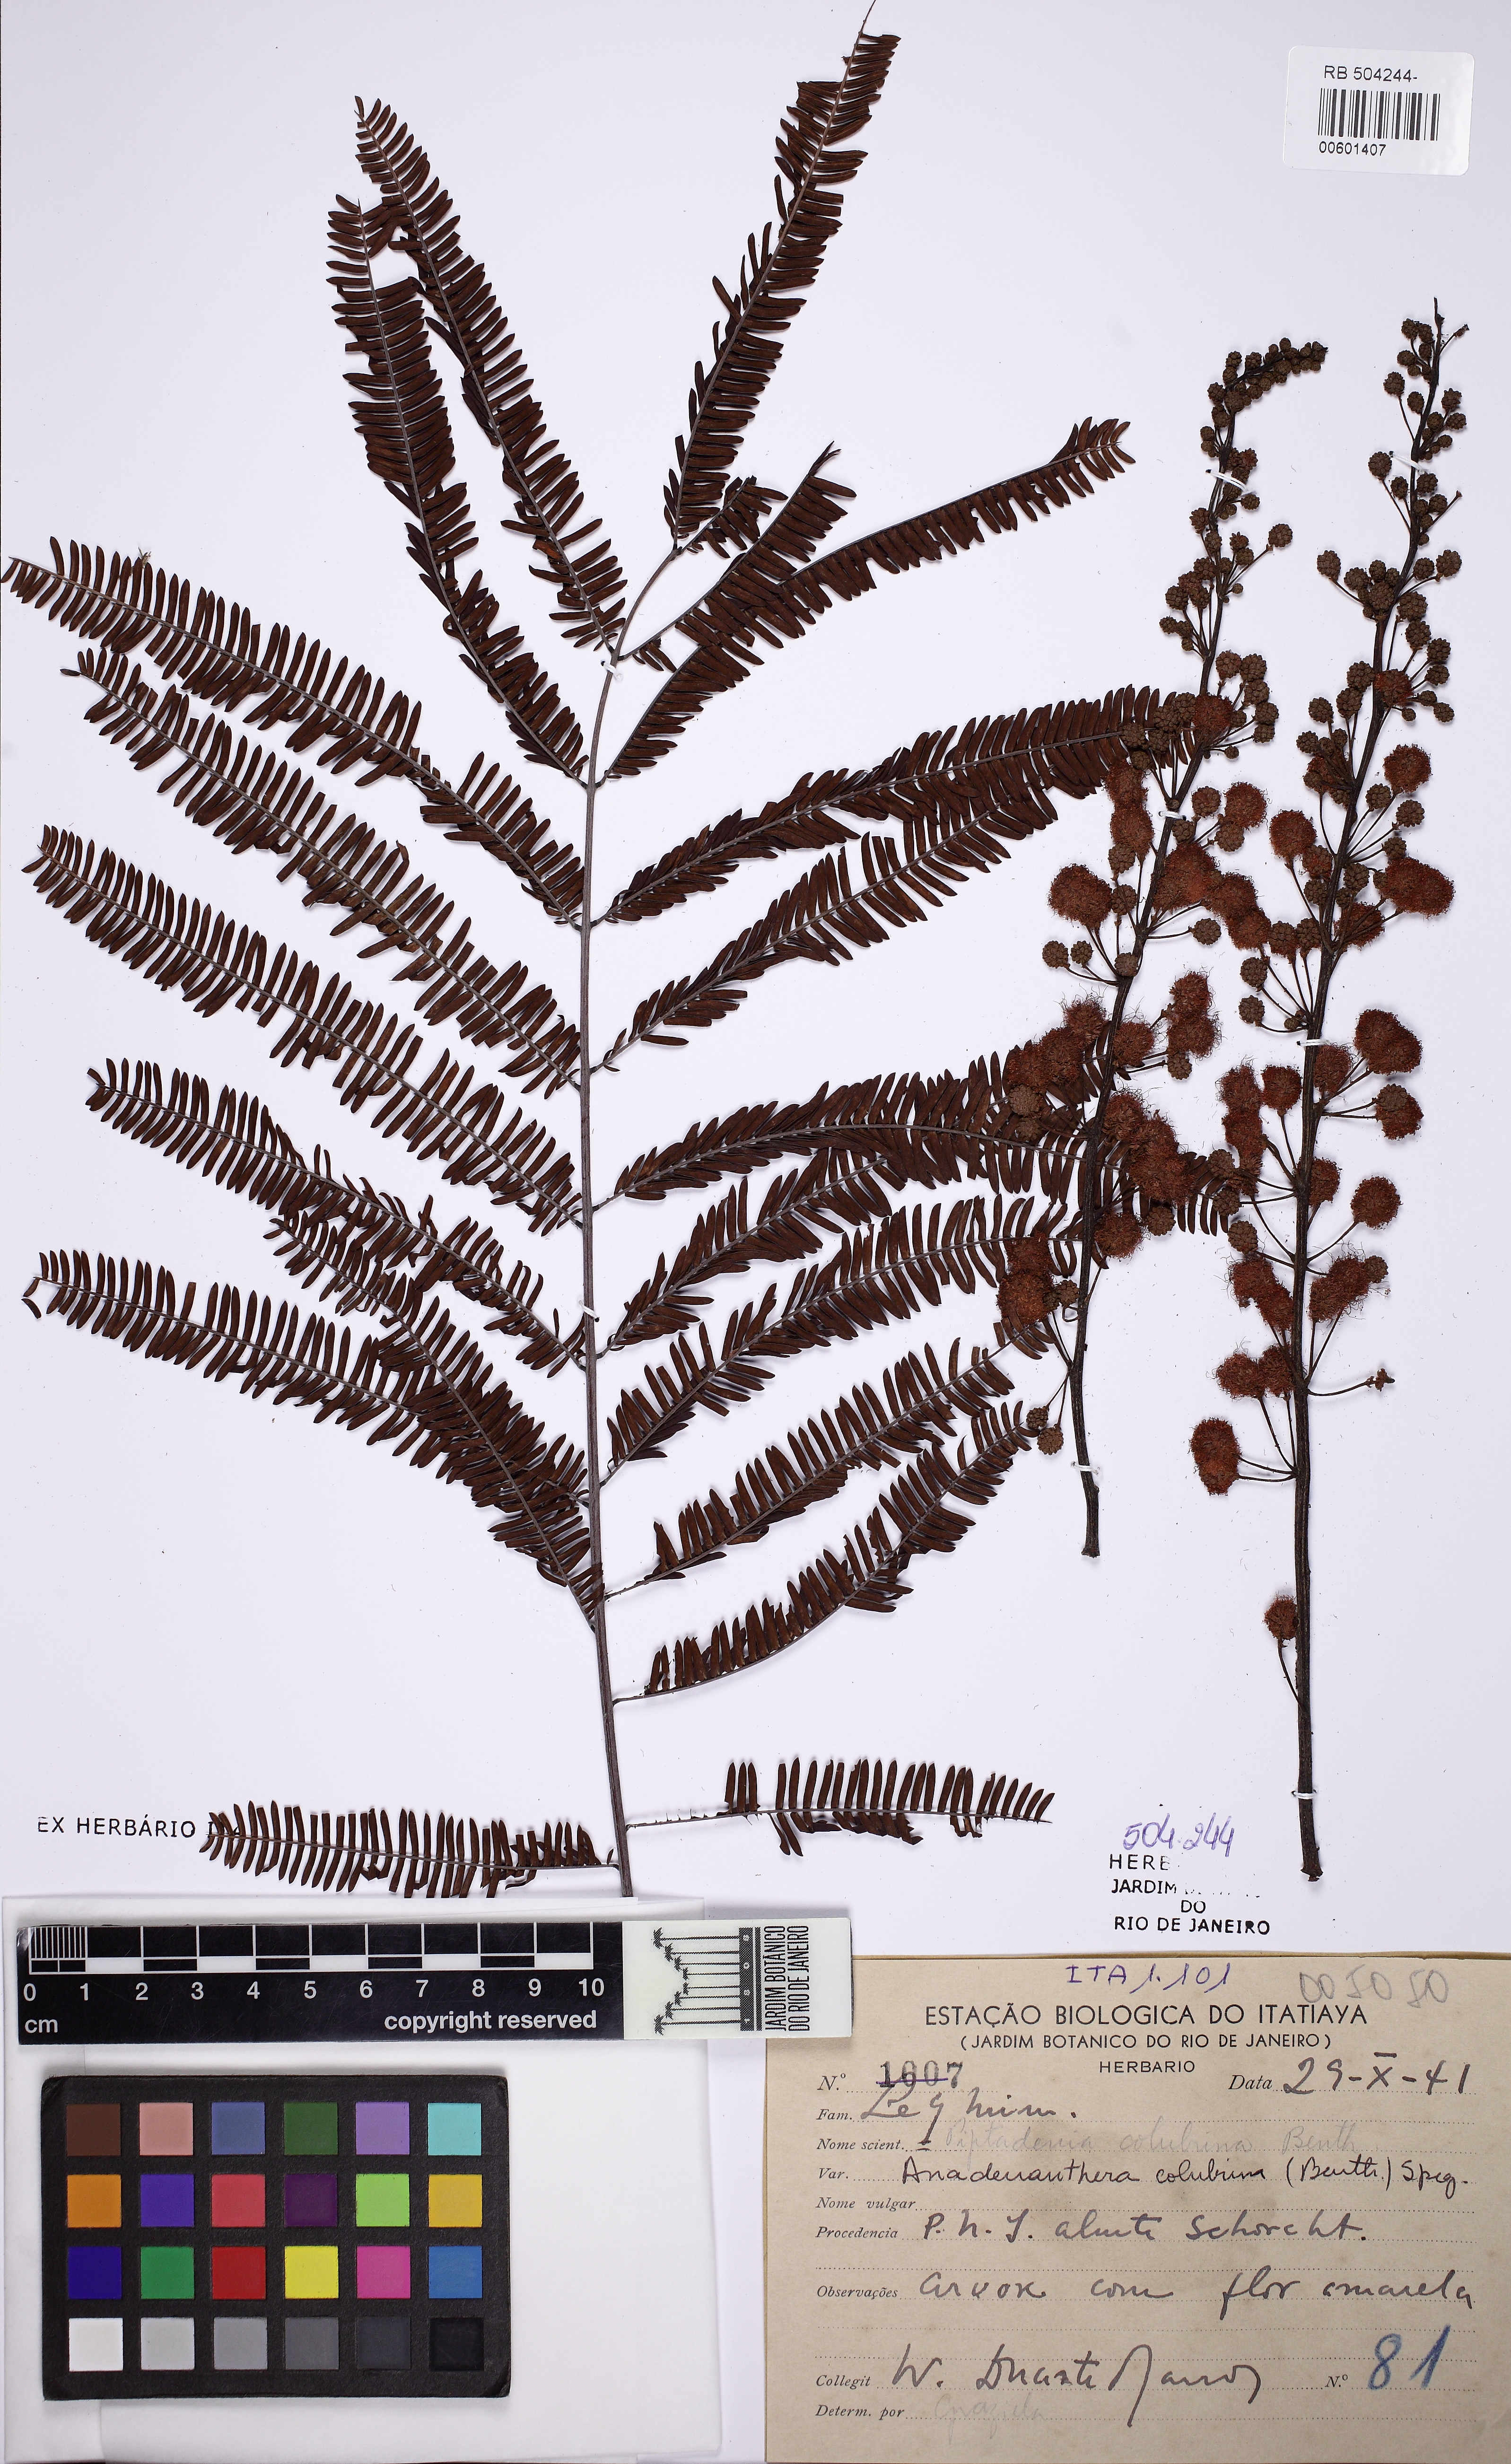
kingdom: Plantae
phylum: Tracheophyta
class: Magnoliopsida
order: Fabales
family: Fabaceae
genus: Anadenanthera
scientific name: Anadenanthera colubrina
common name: Curupay
